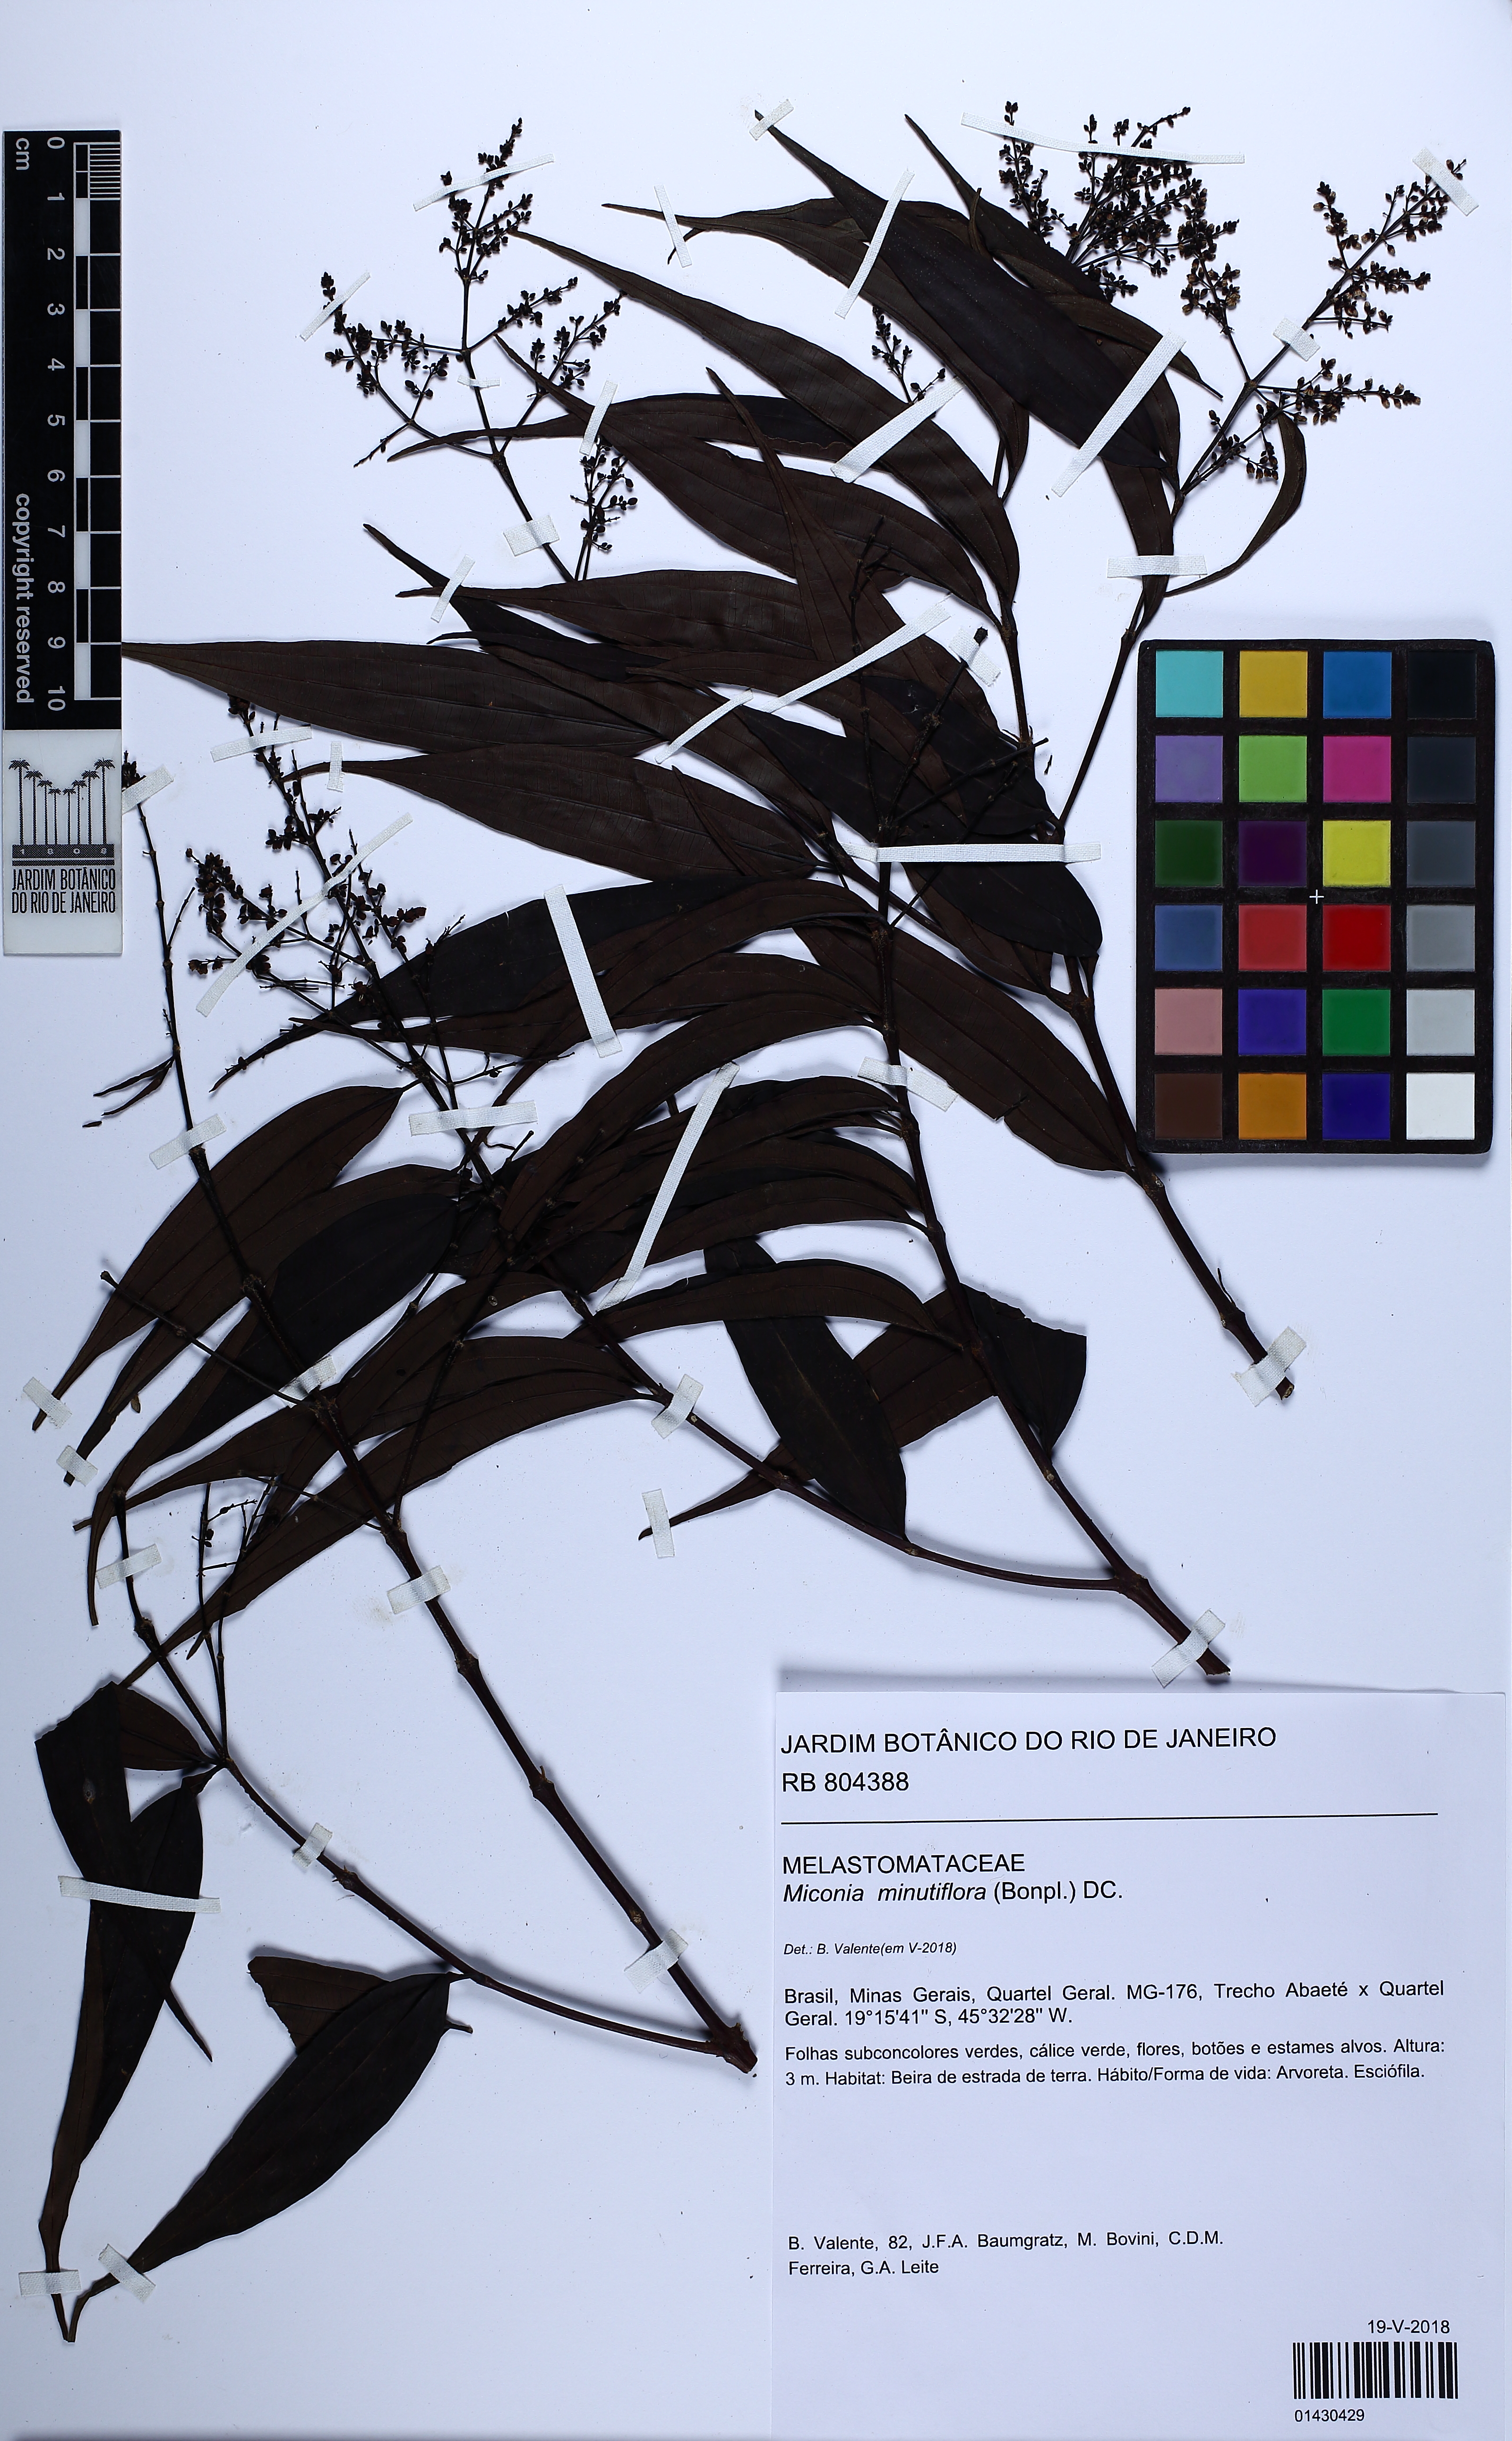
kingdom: Plantae
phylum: Tracheophyta
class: Magnoliopsida
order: Myrtales
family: Melastomataceae
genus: Miconia
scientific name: Miconia minutiflora
